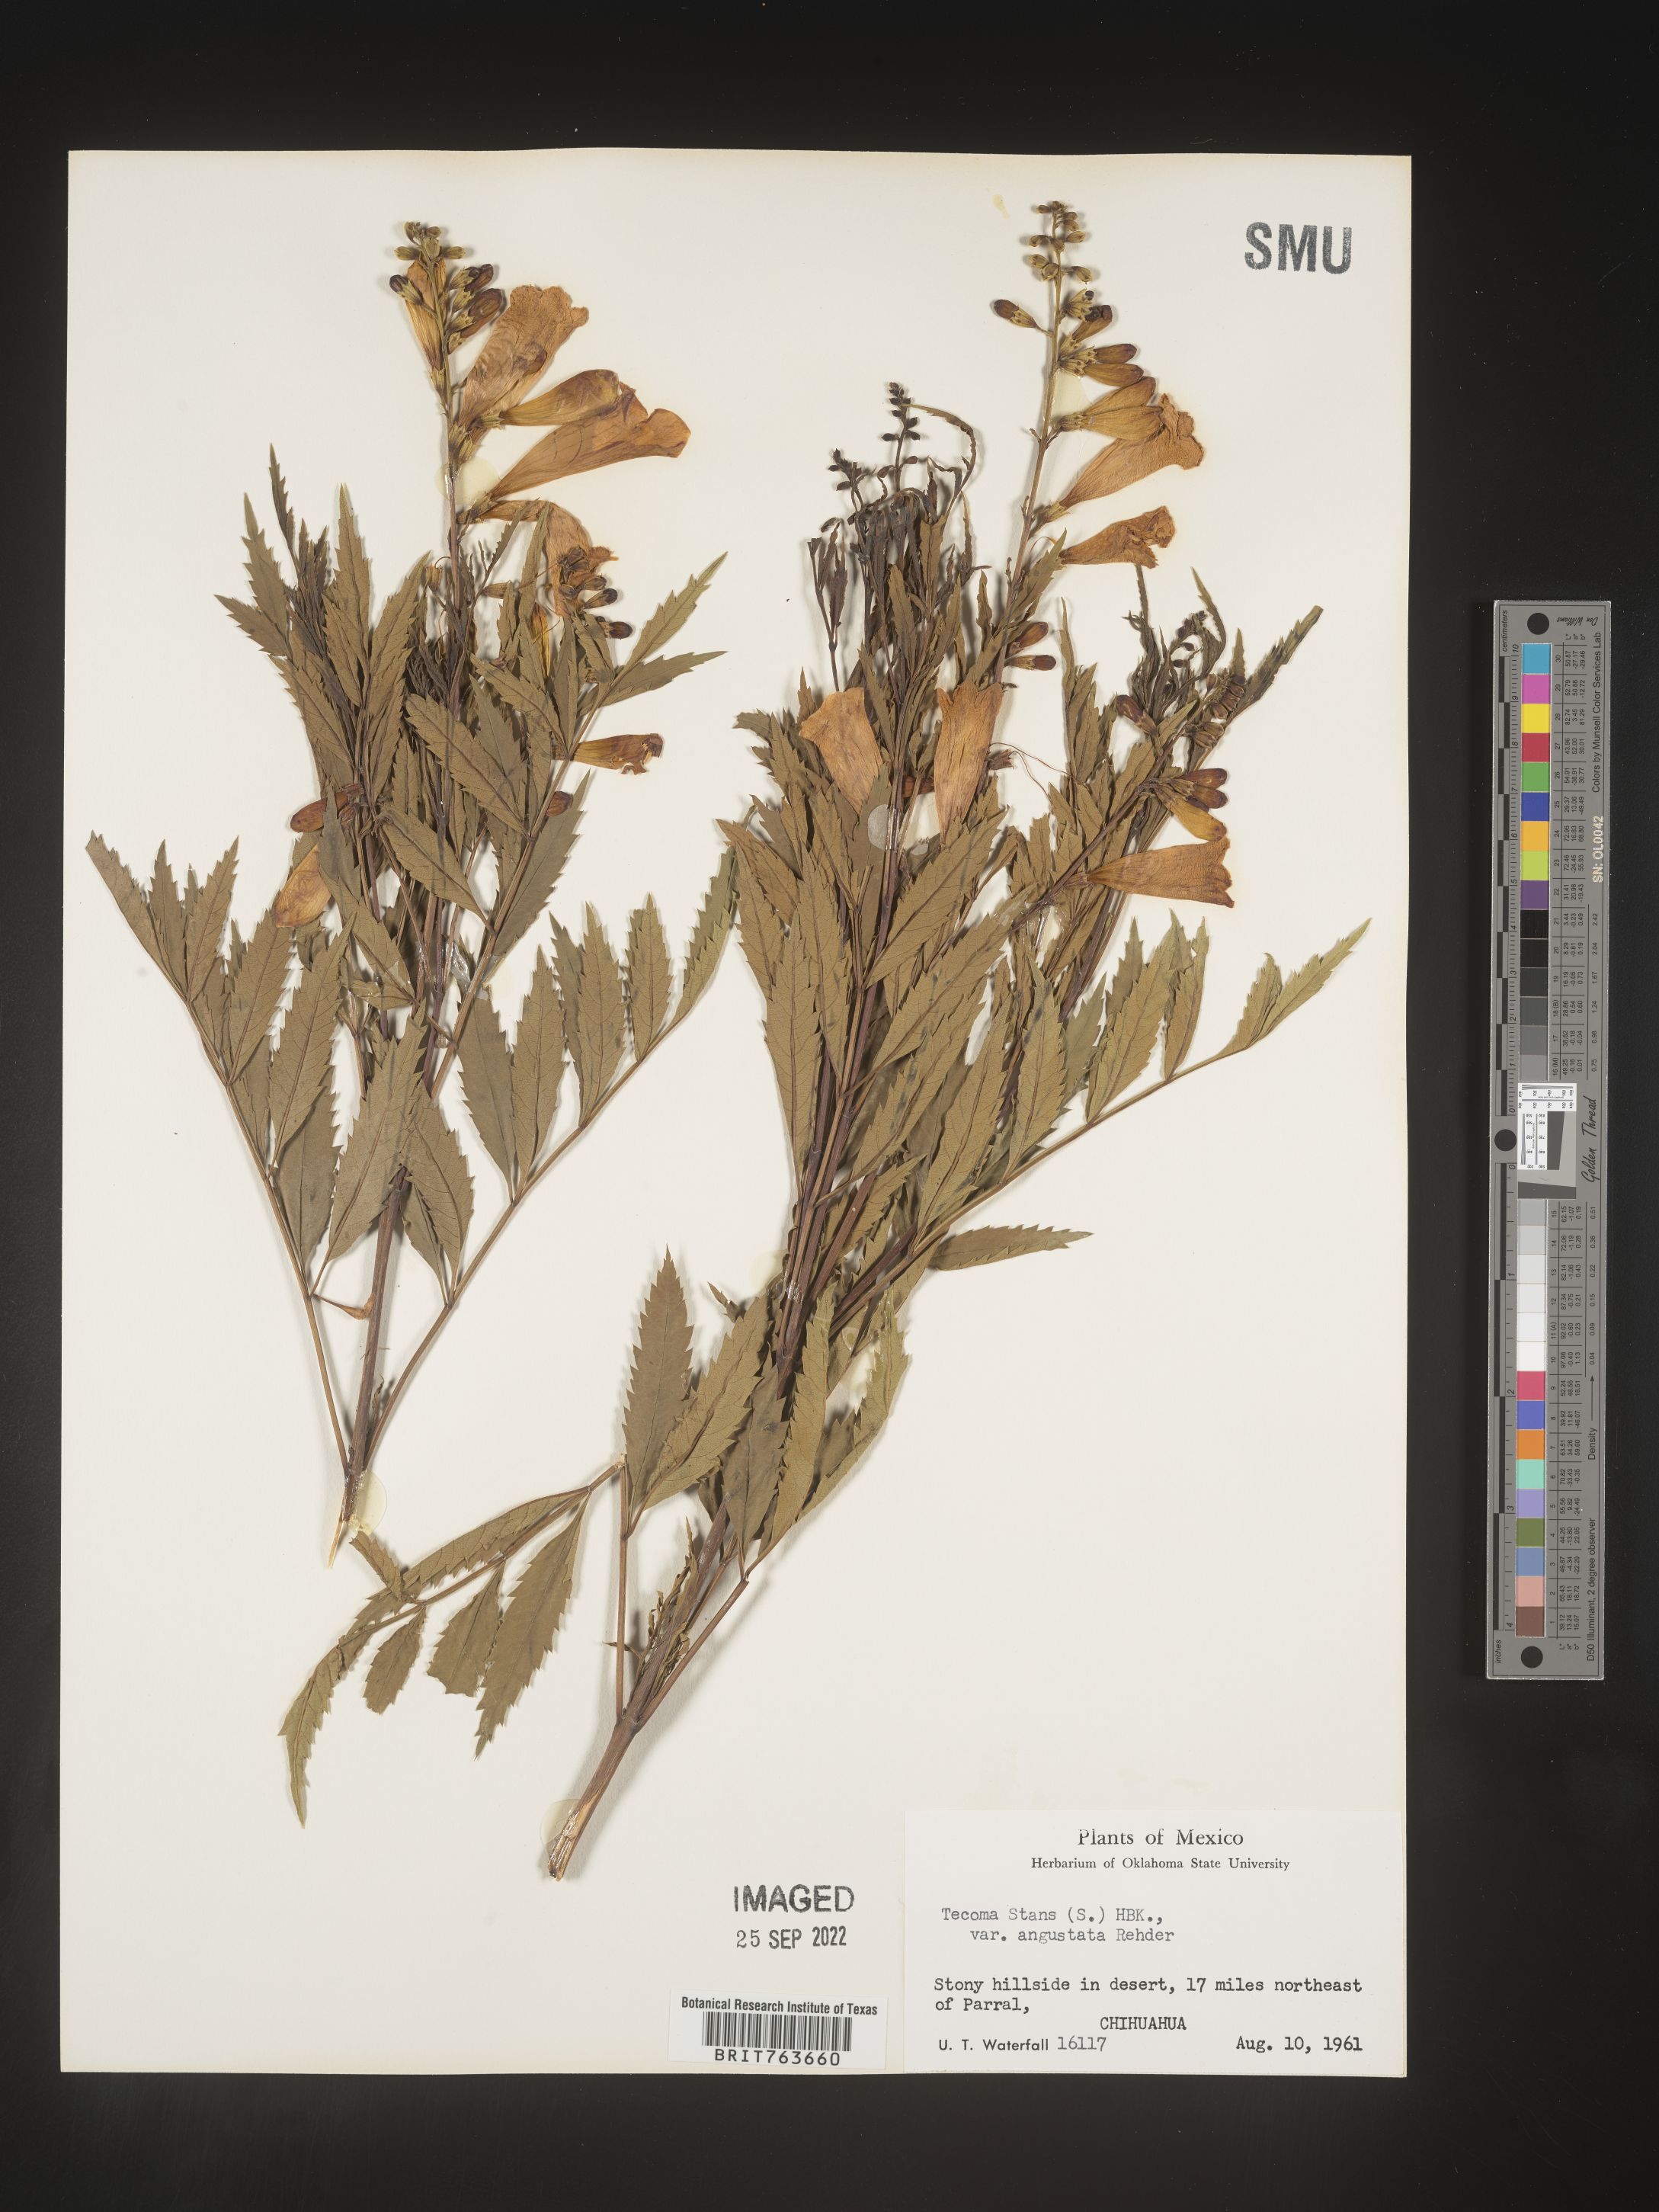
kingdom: Plantae
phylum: Tracheophyta
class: Magnoliopsida
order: Lamiales
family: Bignoniaceae
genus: Tecoma
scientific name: Tecoma
